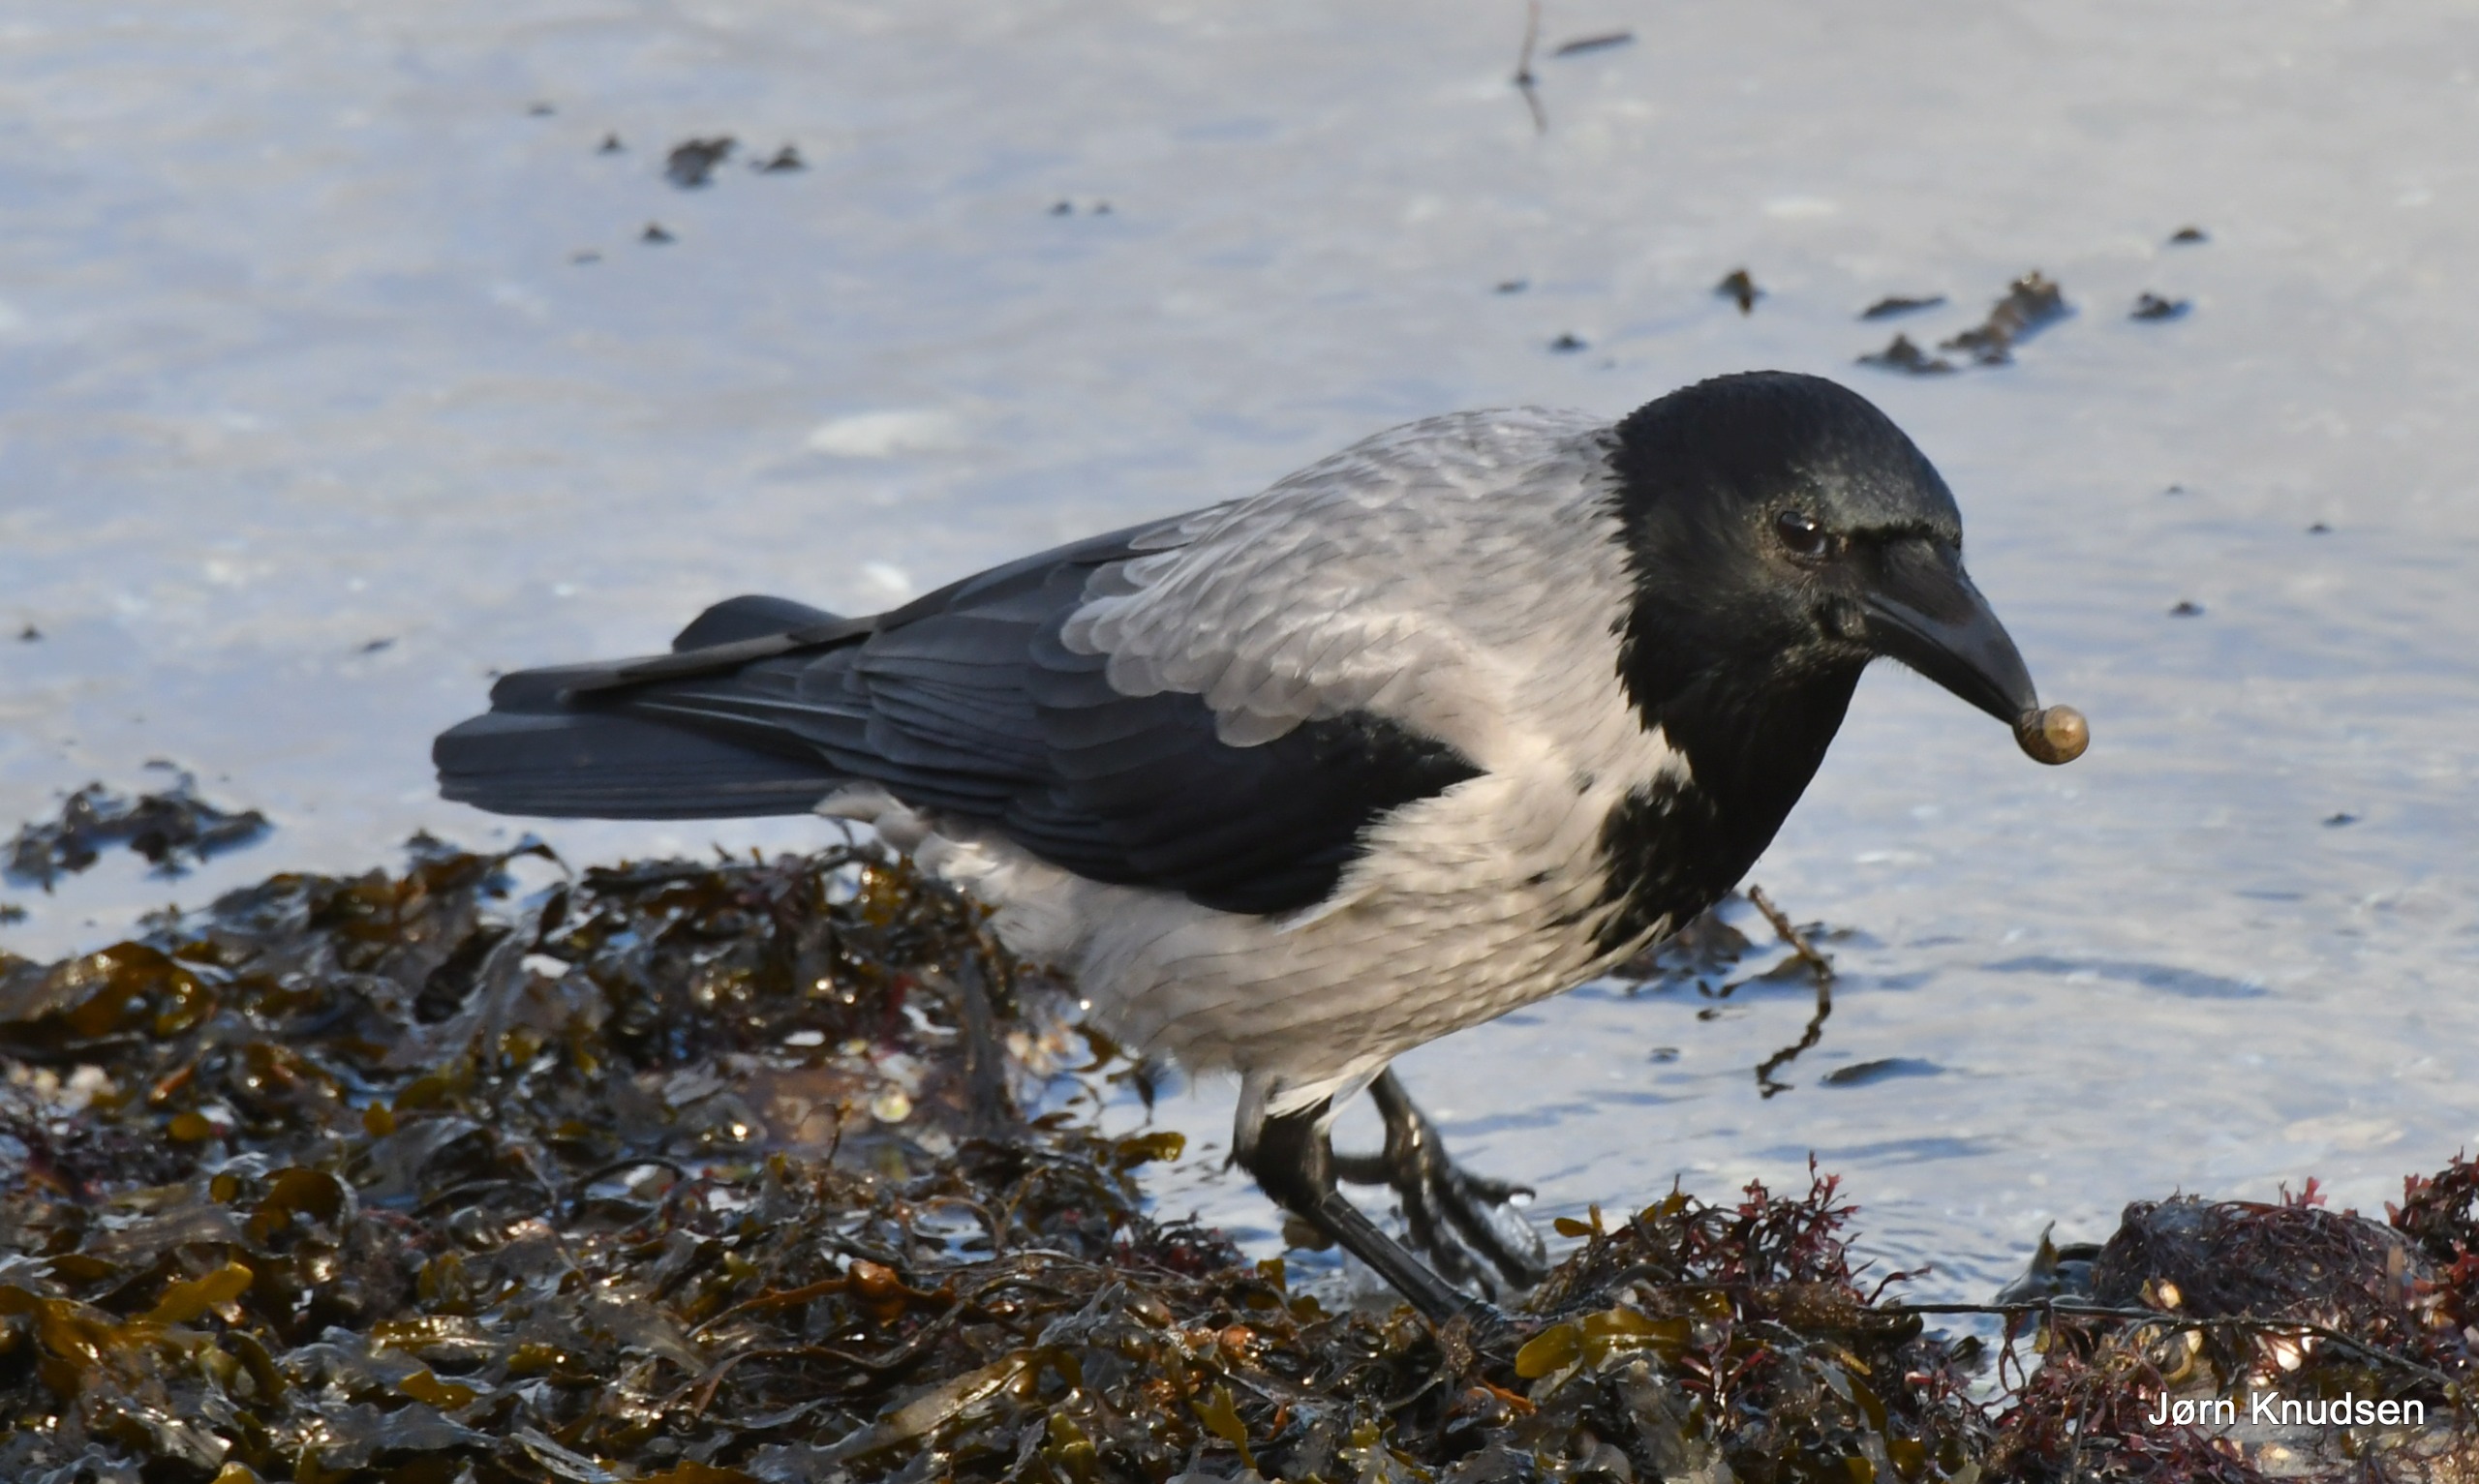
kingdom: Animalia
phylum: Chordata
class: Aves
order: Passeriformes
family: Corvidae
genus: Corvus
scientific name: Corvus cornix
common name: Gråkrage
